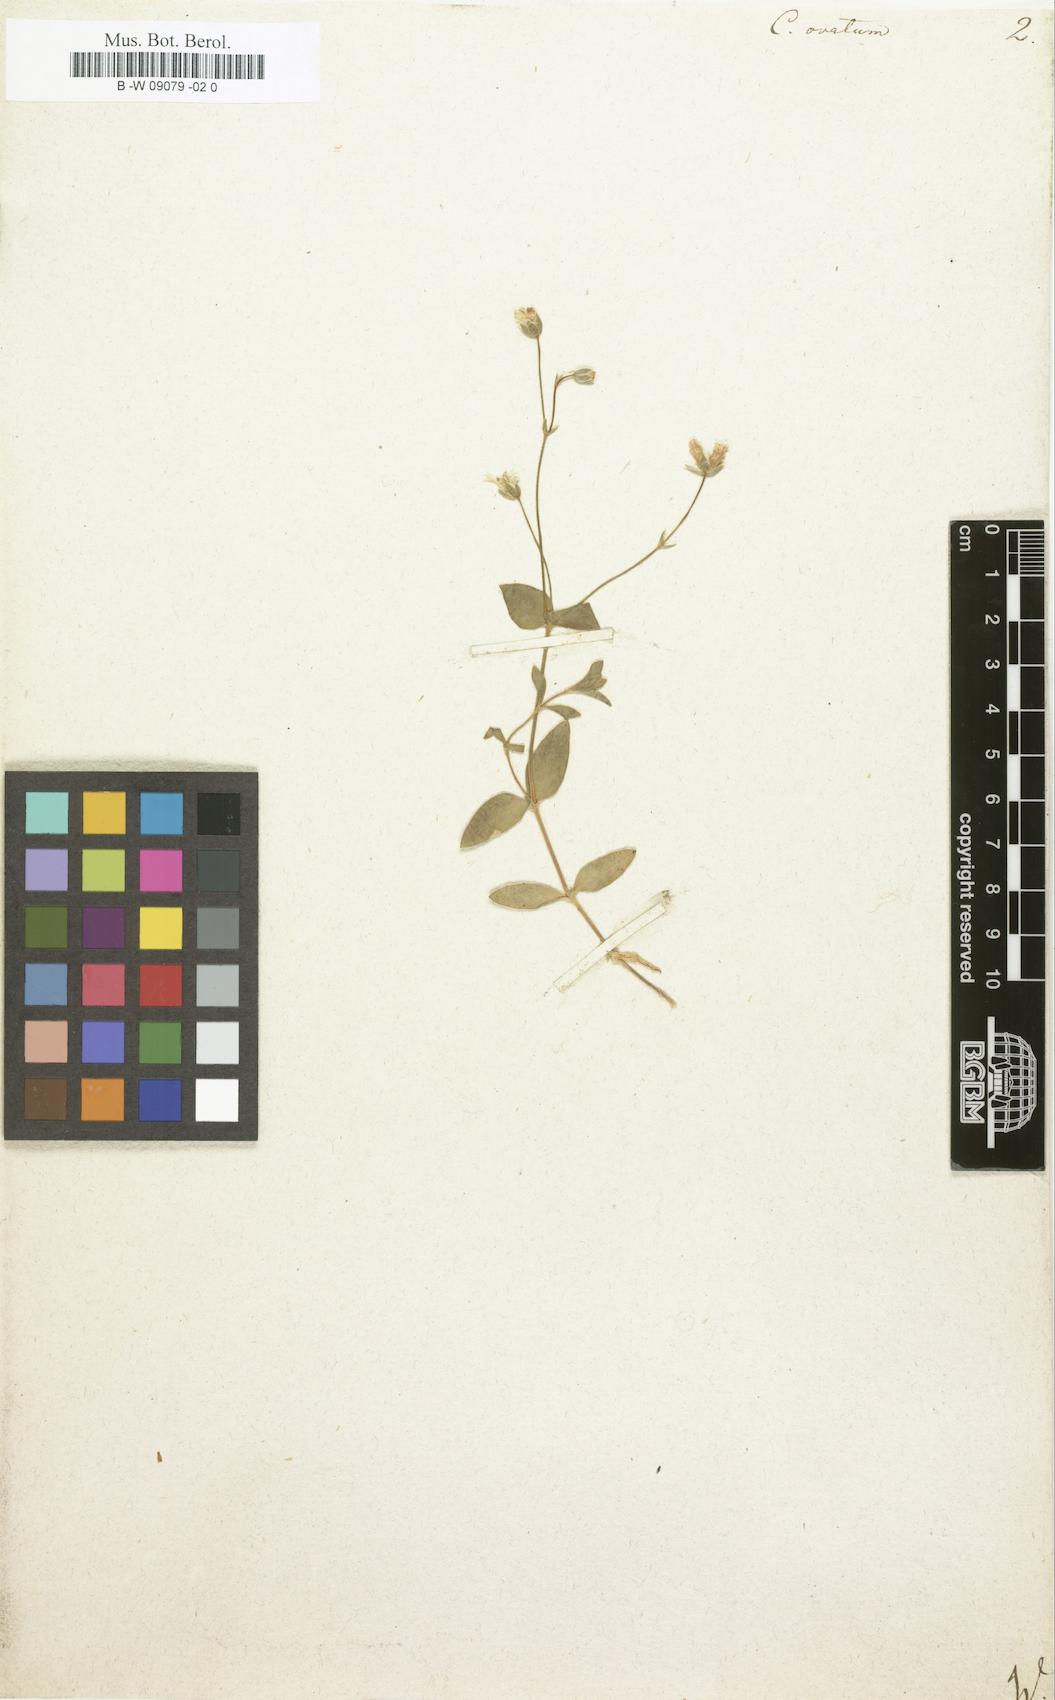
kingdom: Plantae
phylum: Tracheophyta
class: Magnoliopsida
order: Caryophyllales
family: Caryophyllaceae
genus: Cerastium
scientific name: Cerastium arvense
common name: Field mouse-ear
